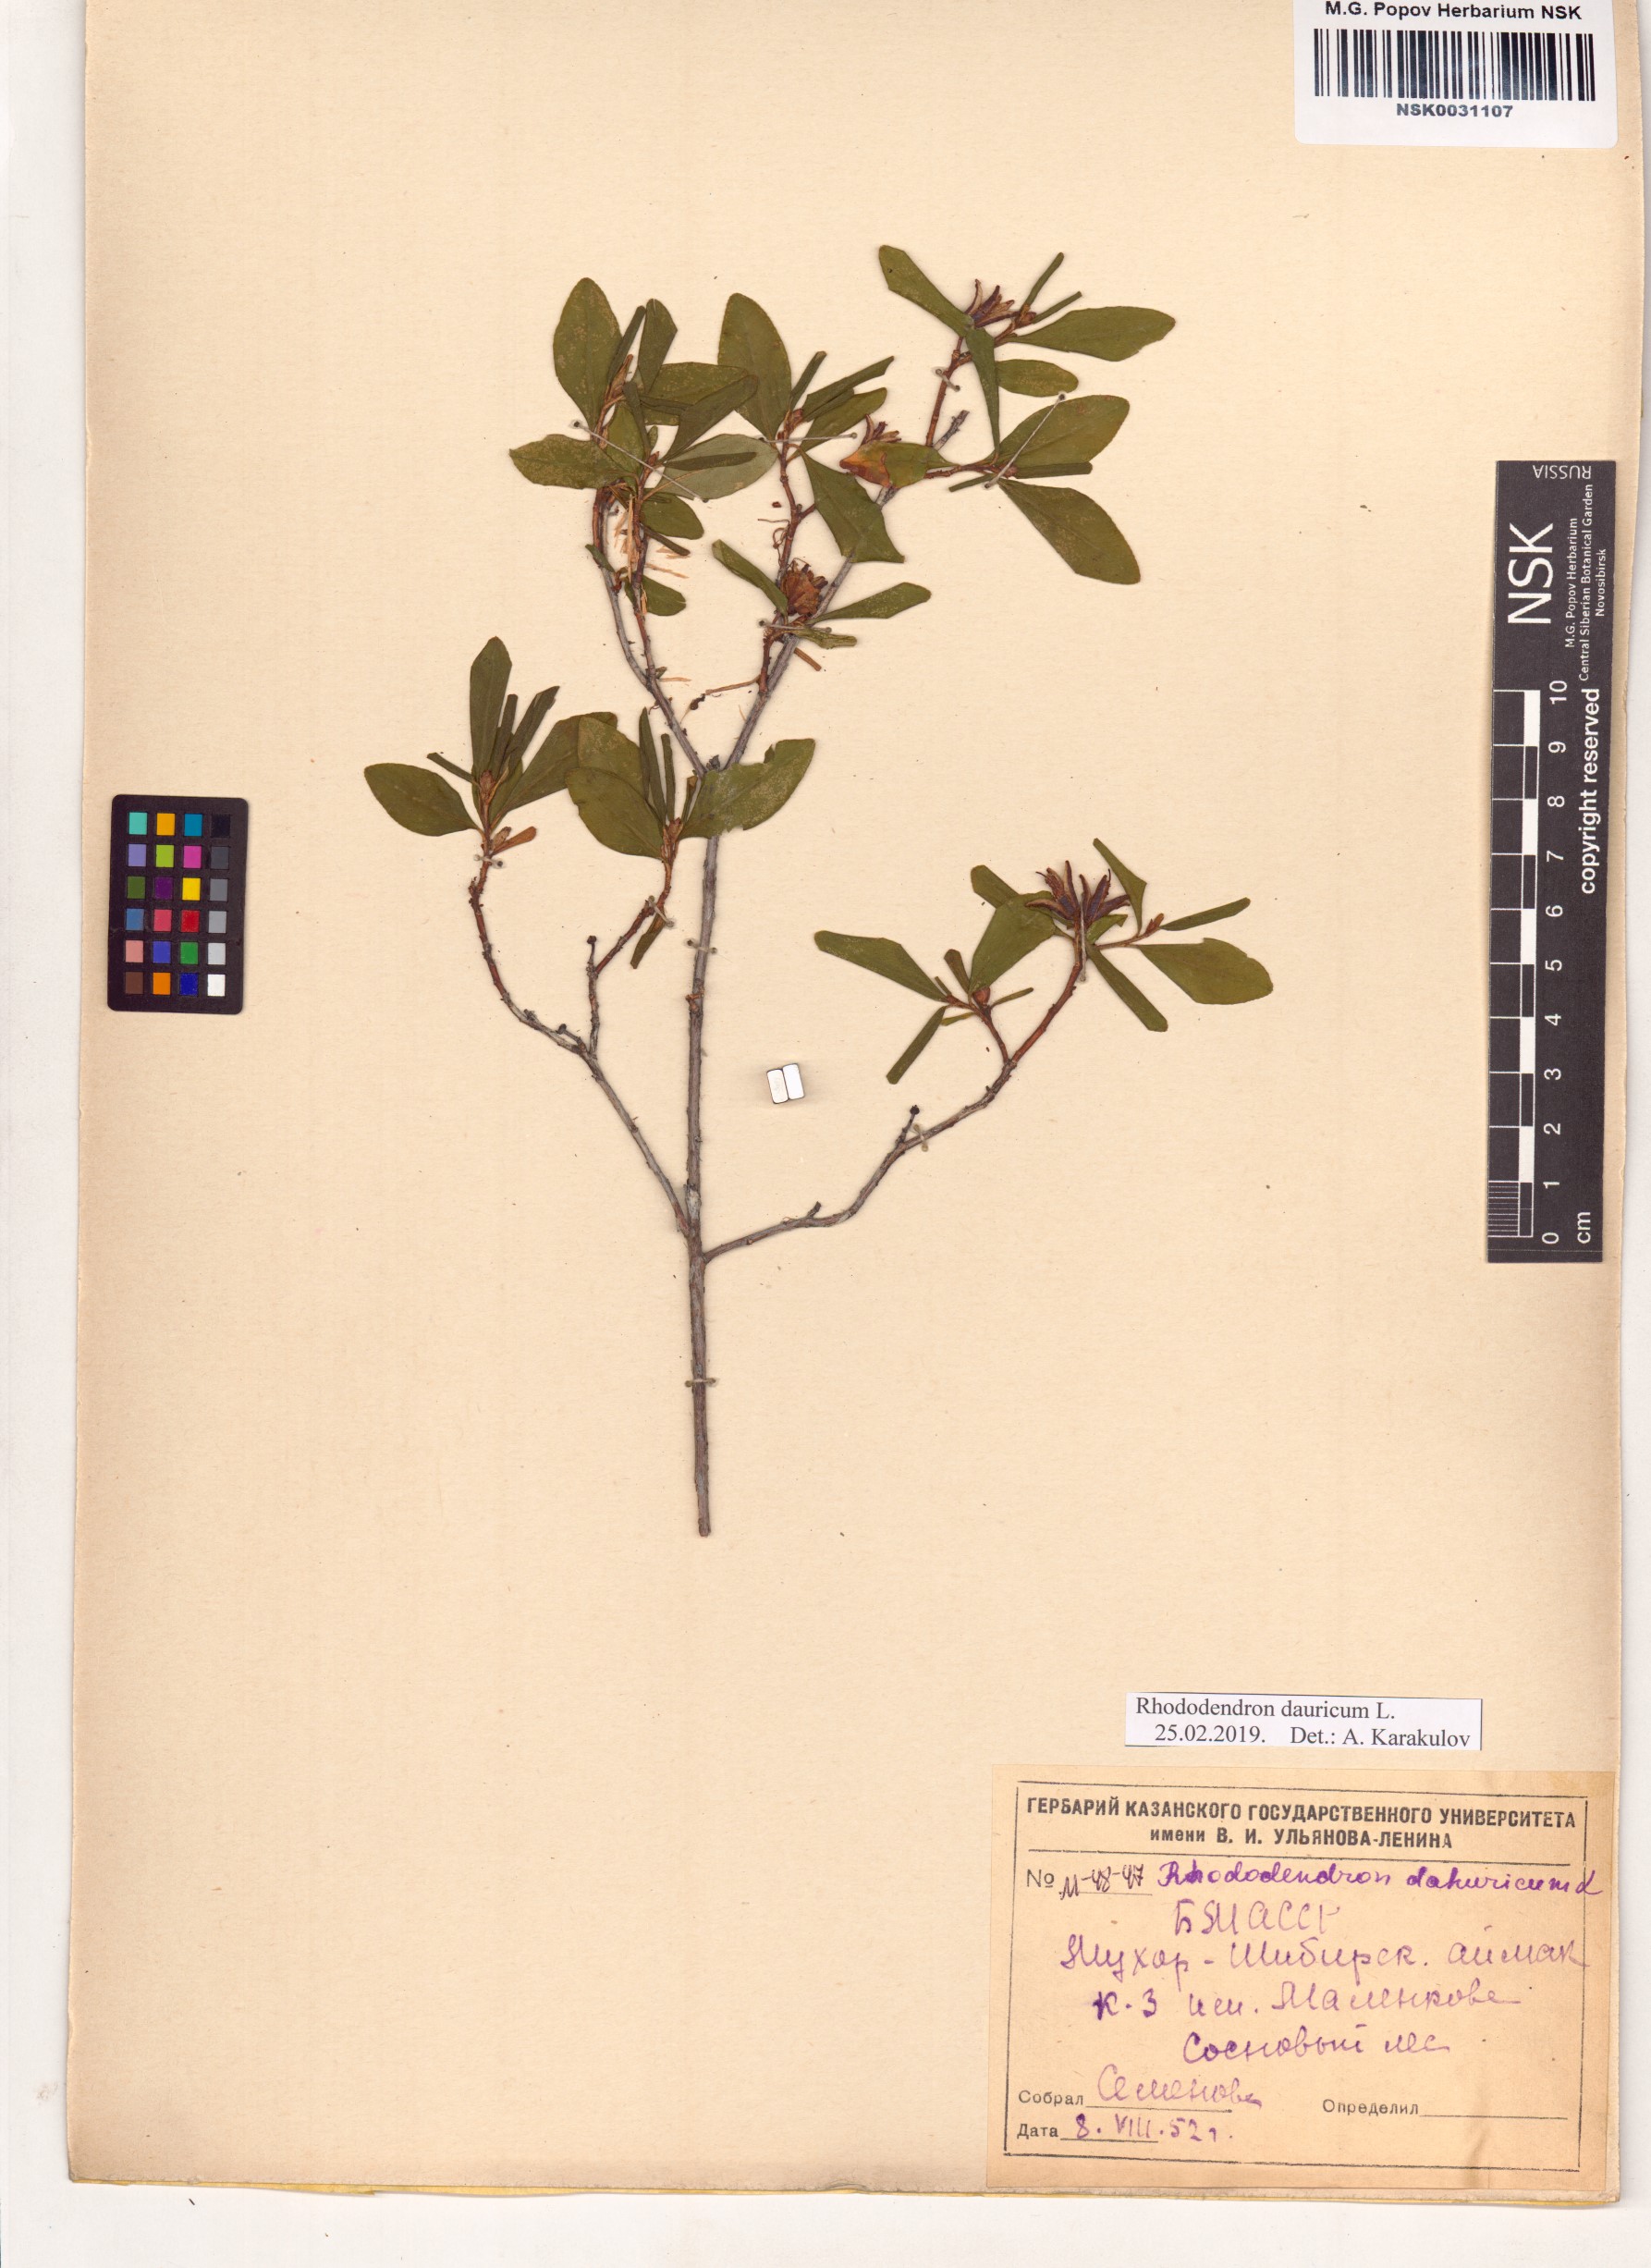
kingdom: Plantae
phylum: Tracheophyta
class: Magnoliopsida
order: Ericales
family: Ericaceae
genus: Rhododendron
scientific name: Rhododendron dauricum
